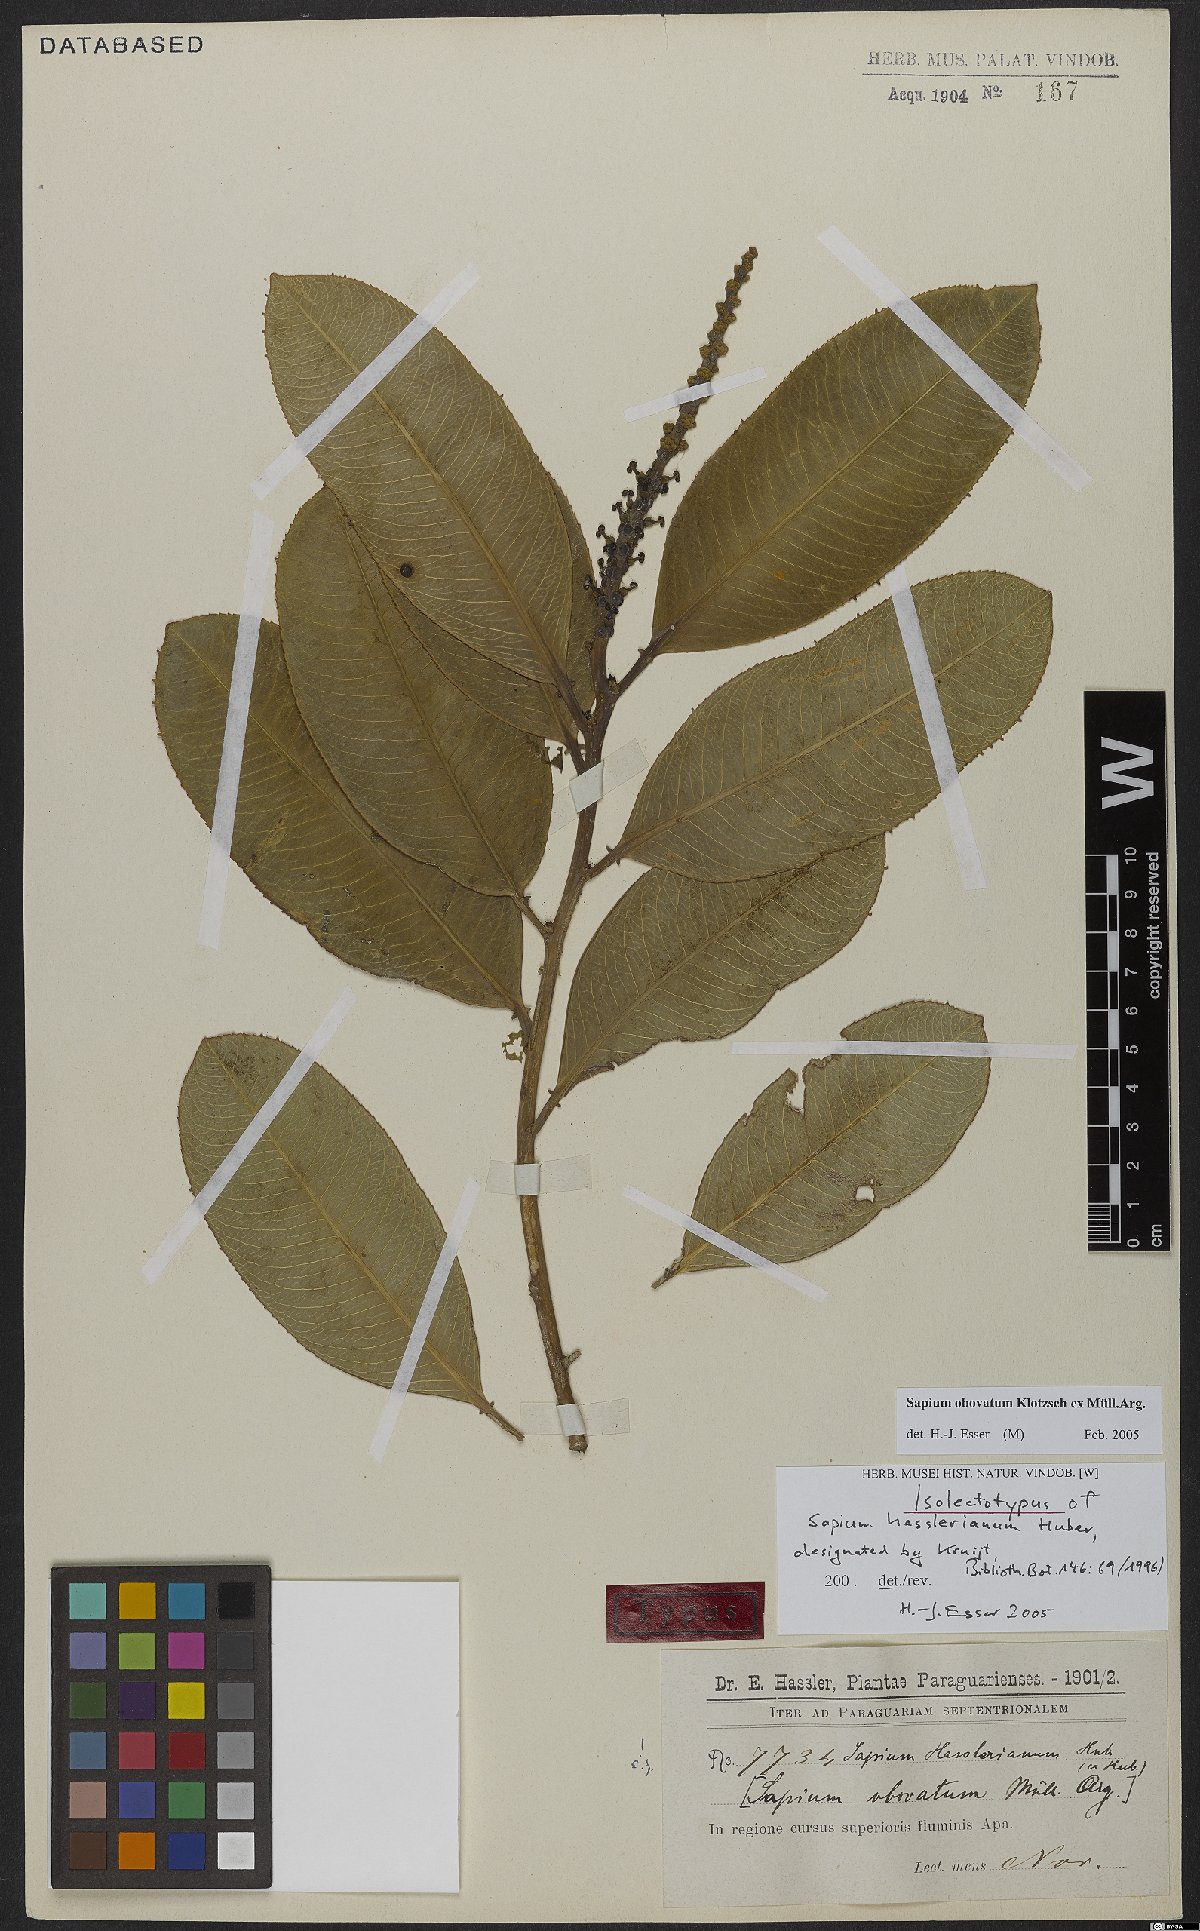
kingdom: Plantae
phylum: Tracheophyta
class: Magnoliopsida
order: Malpighiales
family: Euphorbiaceae
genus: Sapium
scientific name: Sapium obovatum
